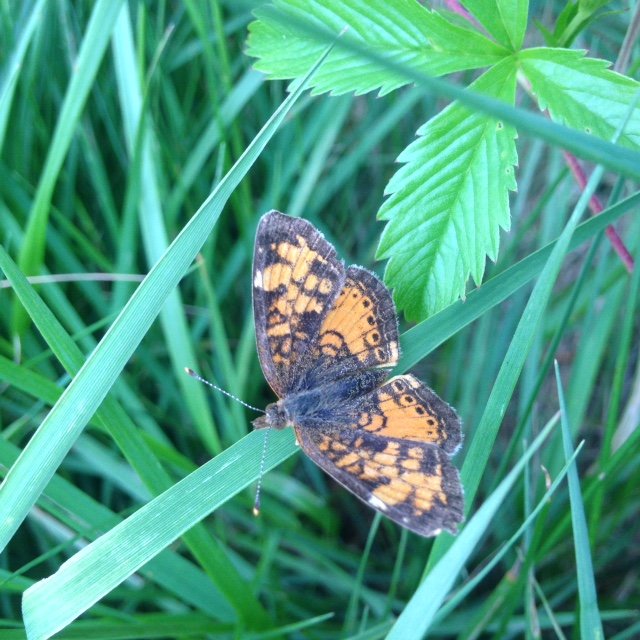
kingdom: Animalia
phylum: Arthropoda
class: Insecta
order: Lepidoptera
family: Nymphalidae
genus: Phyciodes
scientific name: Phyciodes tharos
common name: Northern Crescent
